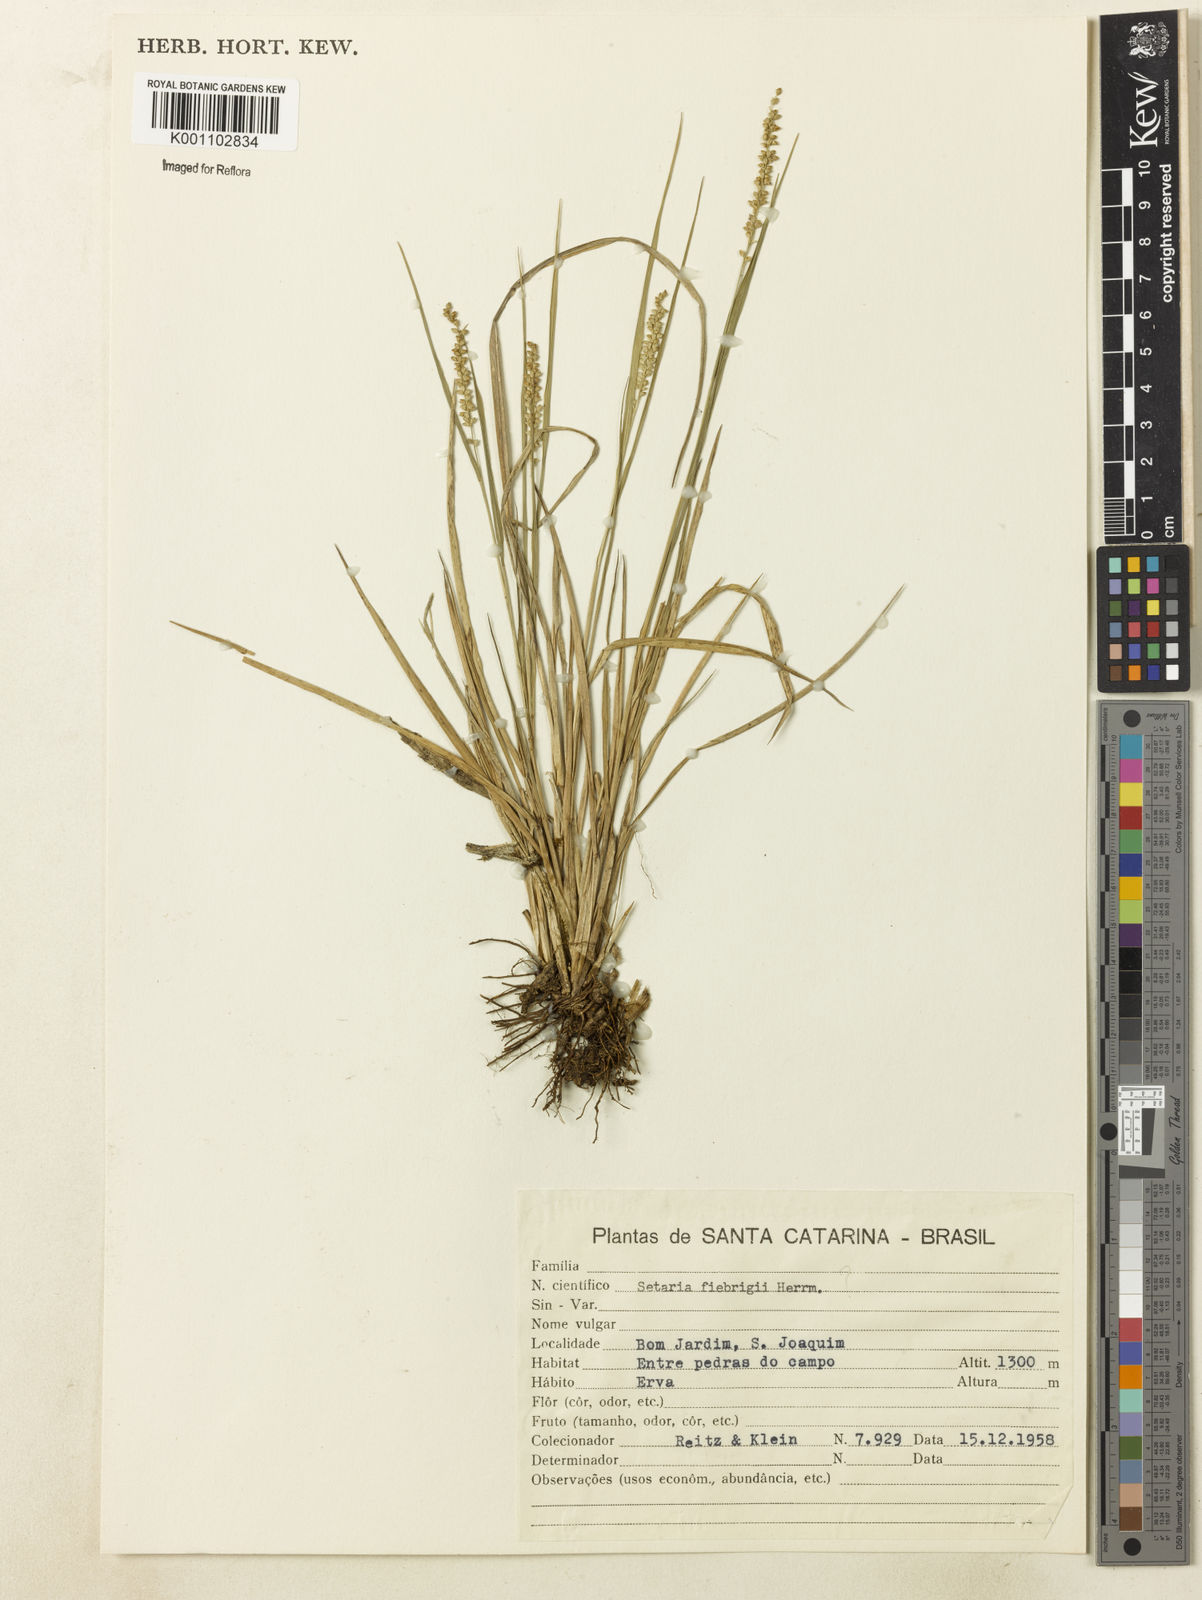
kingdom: Plantae
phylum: Tracheophyta
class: Liliopsida
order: Poales
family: Poaceae
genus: Setaria
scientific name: Setaria setosa
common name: West indies bristle grass
